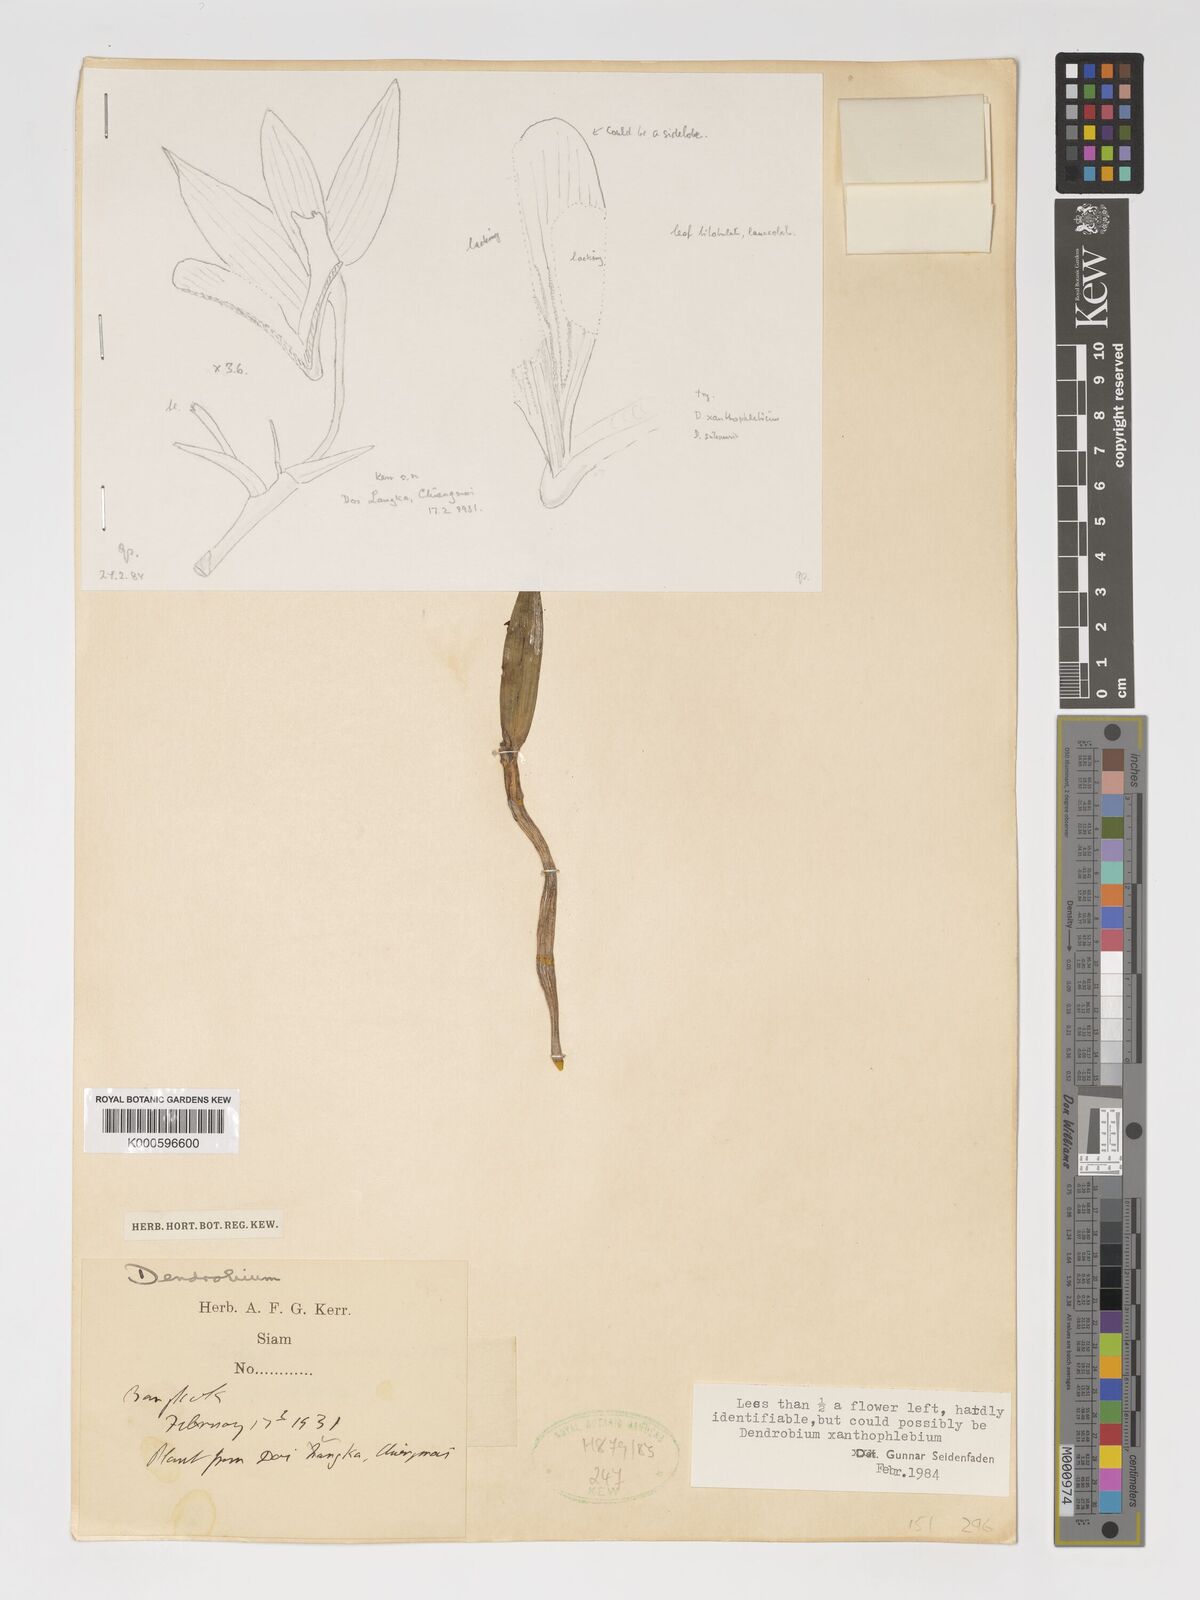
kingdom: Plantae
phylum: Tracheophyta
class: Liliopsida
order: Asparagales
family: Orchidaceae
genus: Dendrobium
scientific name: Dendrobium xanthophlebium
